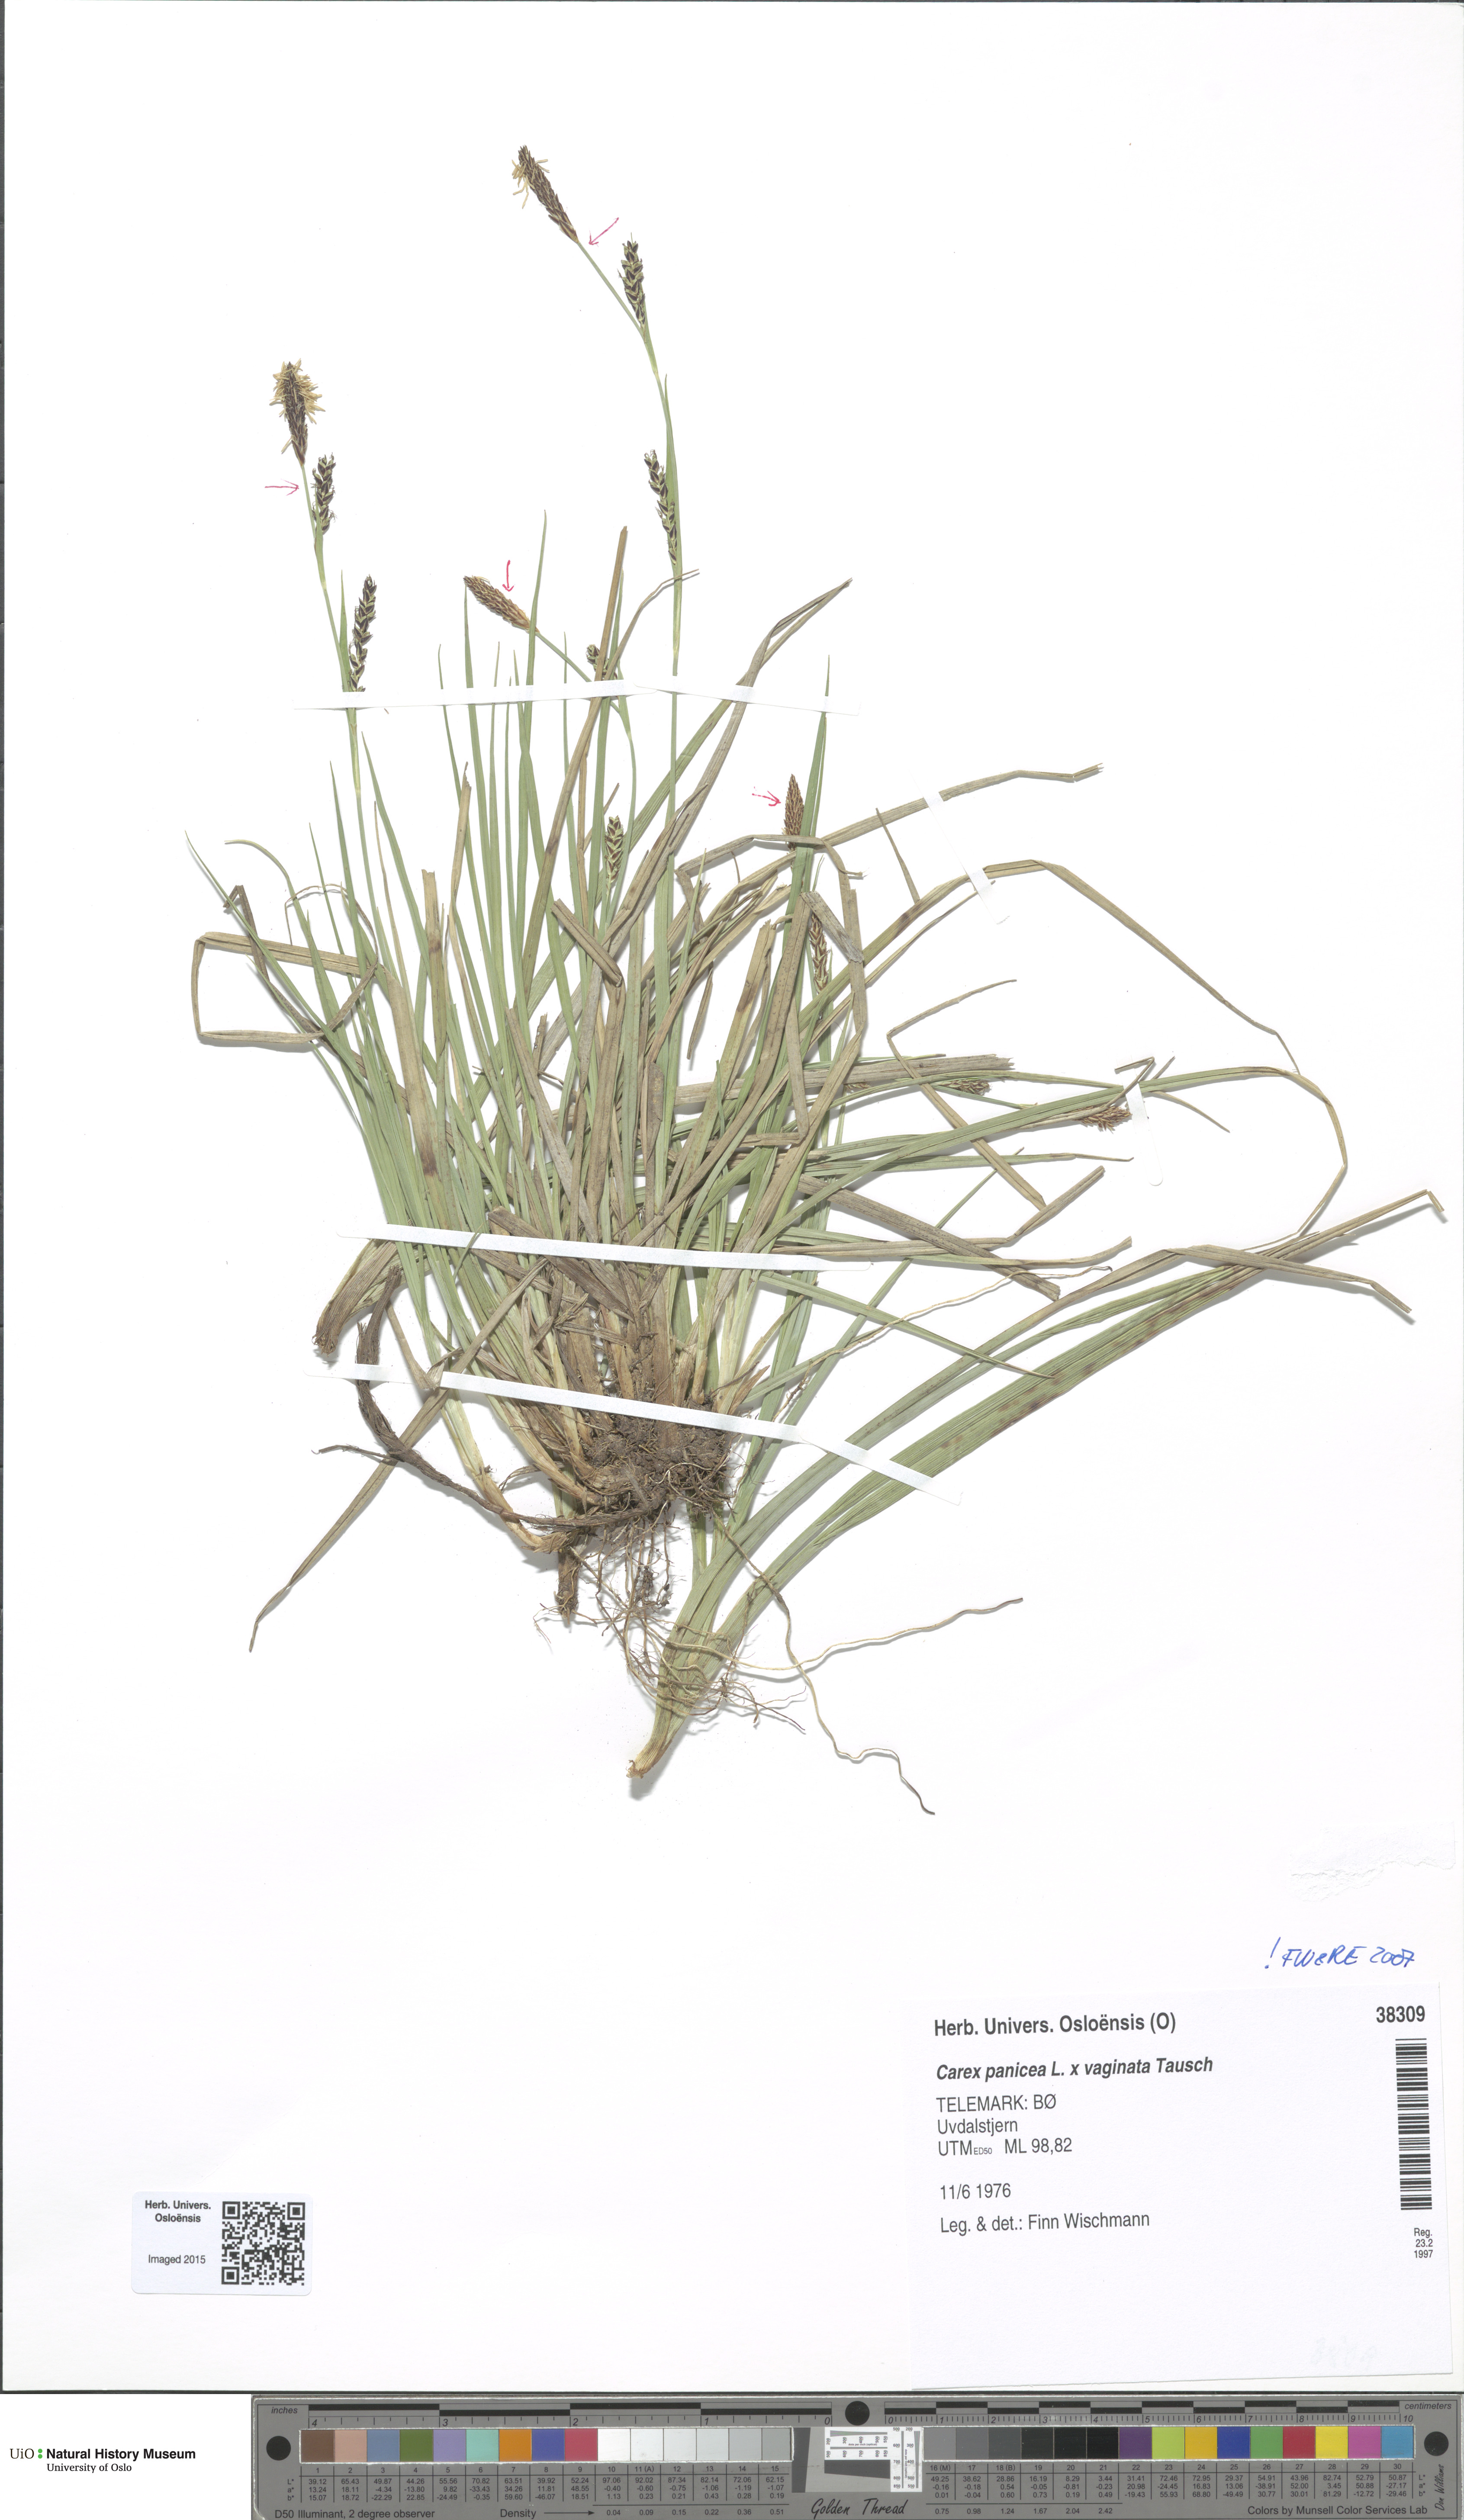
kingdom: Plantae
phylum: Tracheophyta
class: Liliopsida
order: Poales
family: Cyperaceae
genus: Carex
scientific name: Carex
